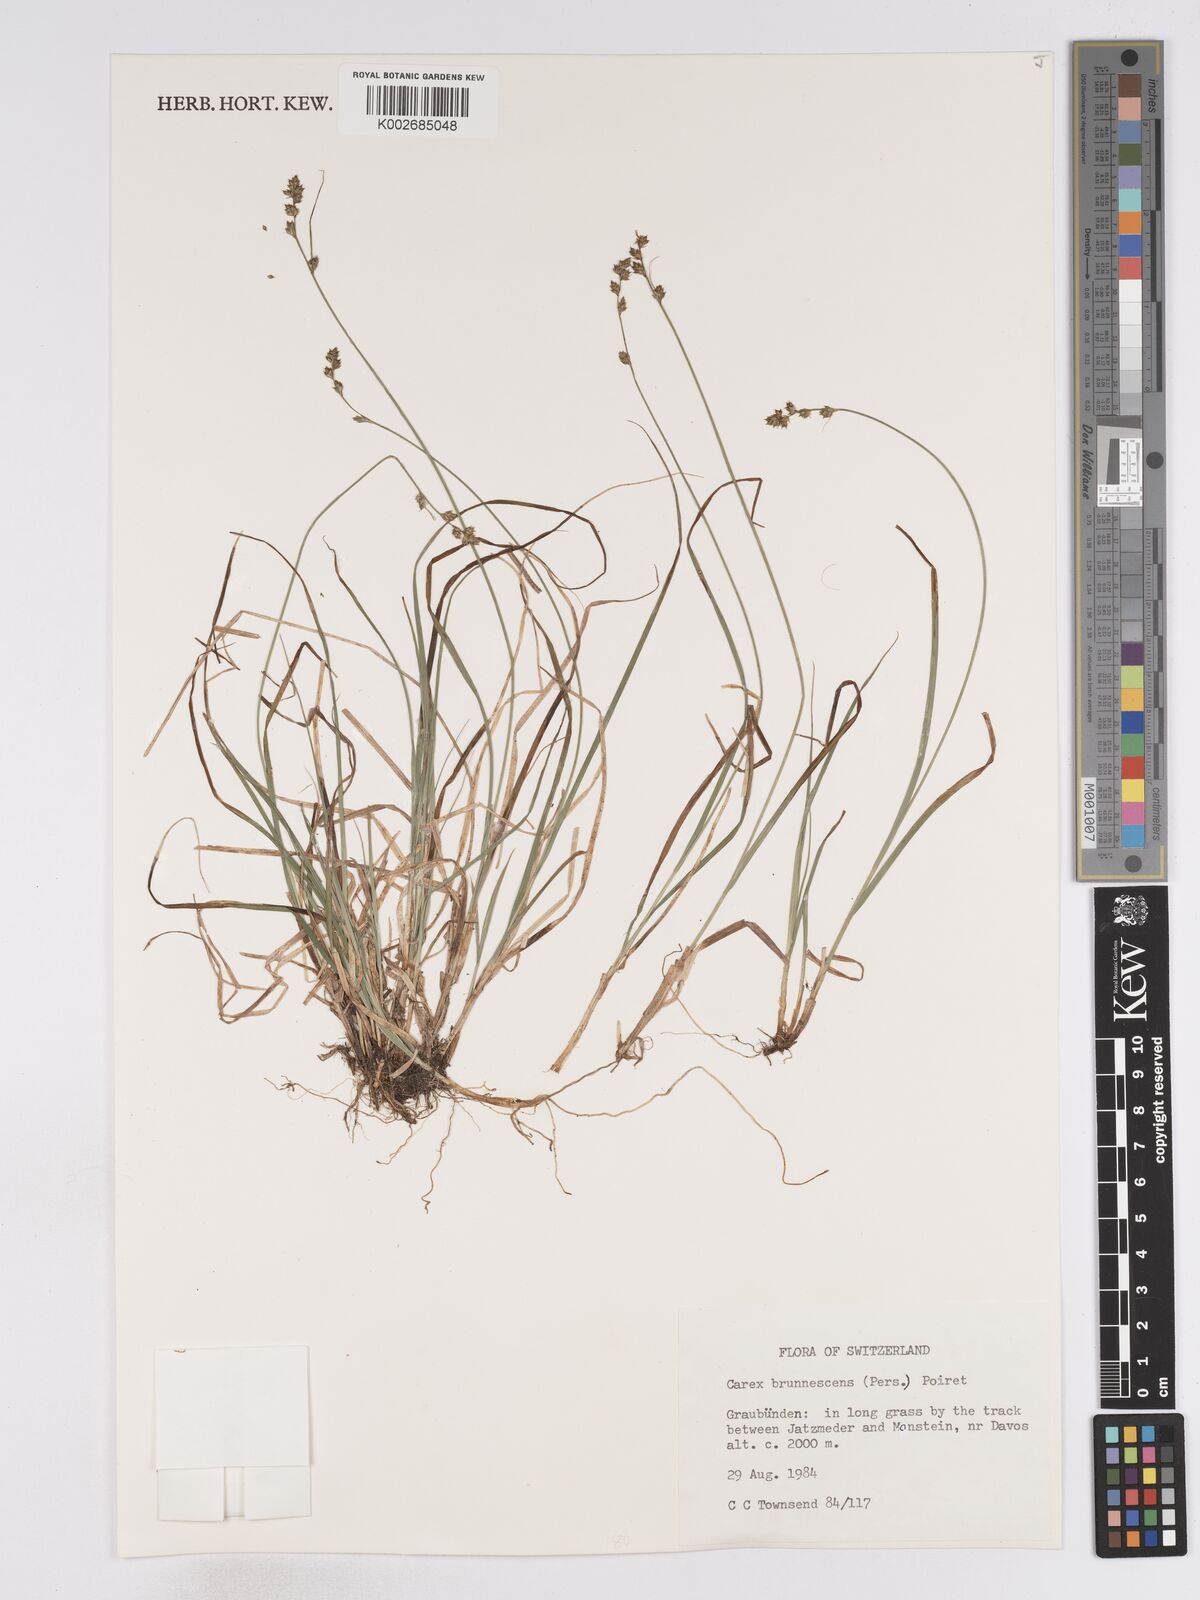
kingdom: Plantae
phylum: Tracheophyta
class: Liliopsida
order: Poales
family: Cyperaceae
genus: Carex
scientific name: Carex brunnescens
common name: Brown sedge
